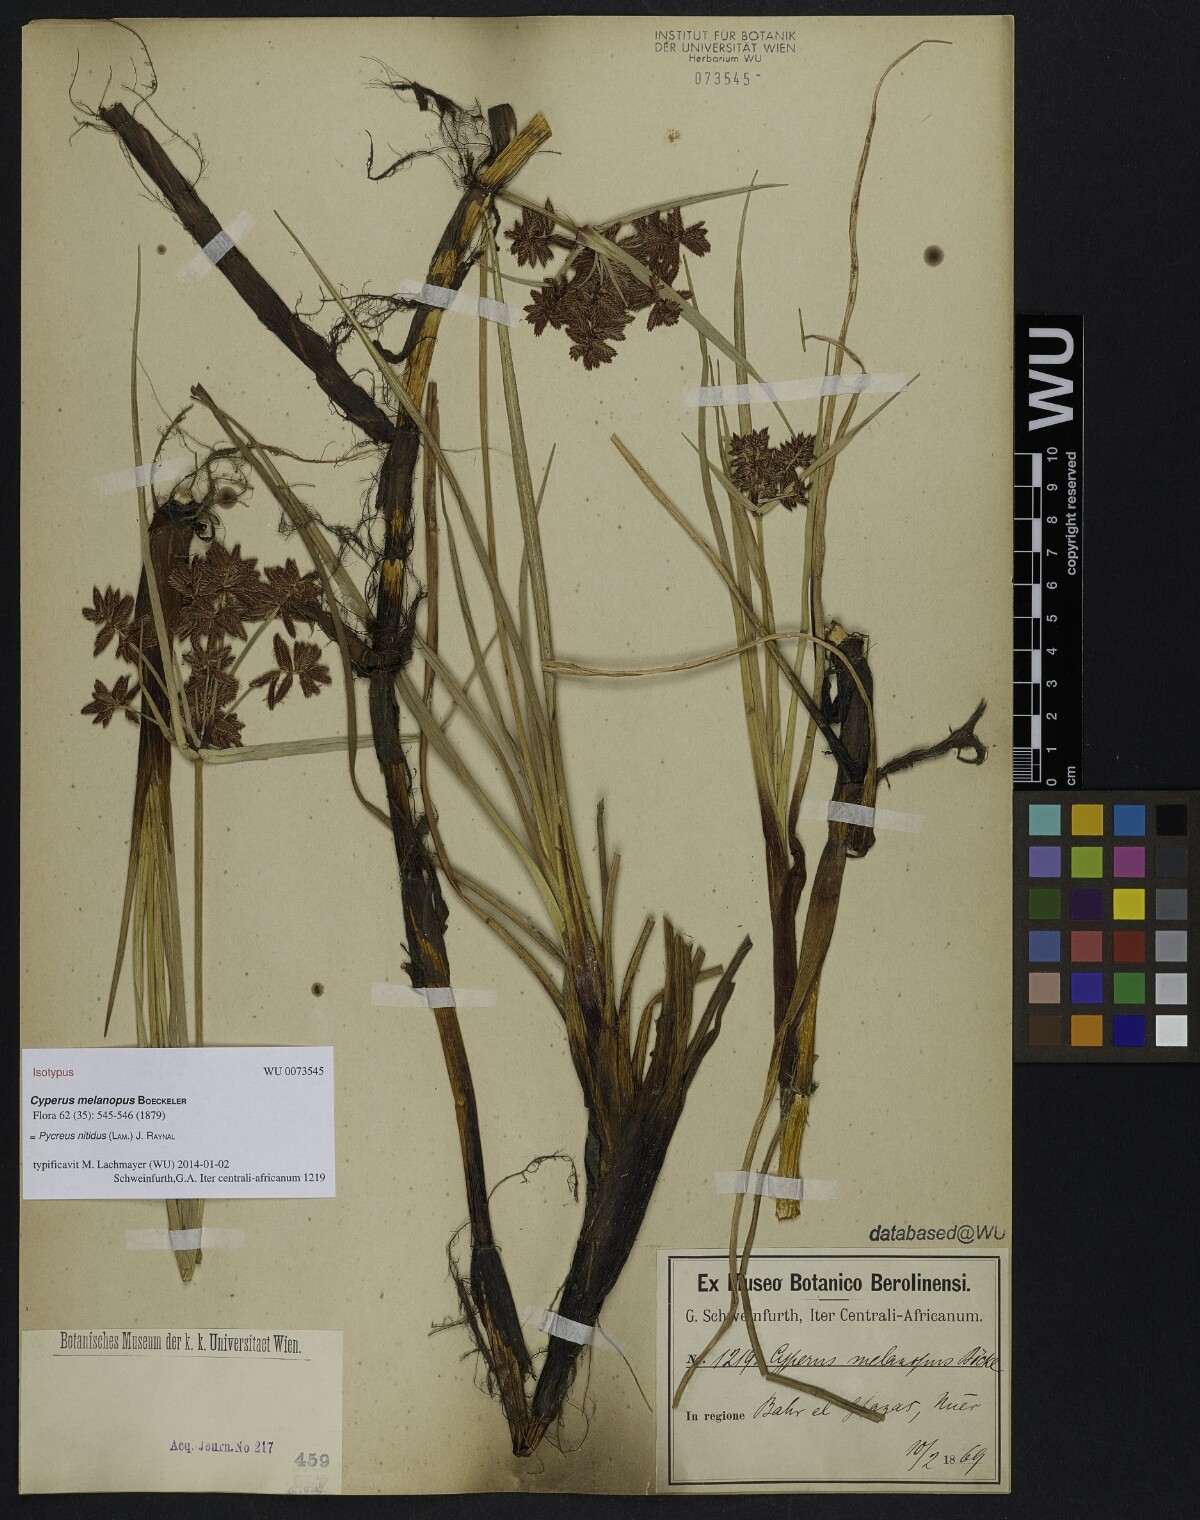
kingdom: Plantae
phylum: Tracheophyta
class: Liliopsida
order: Poales
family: Cyperaceae
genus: Cyperus
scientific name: Cyperus nitidus
